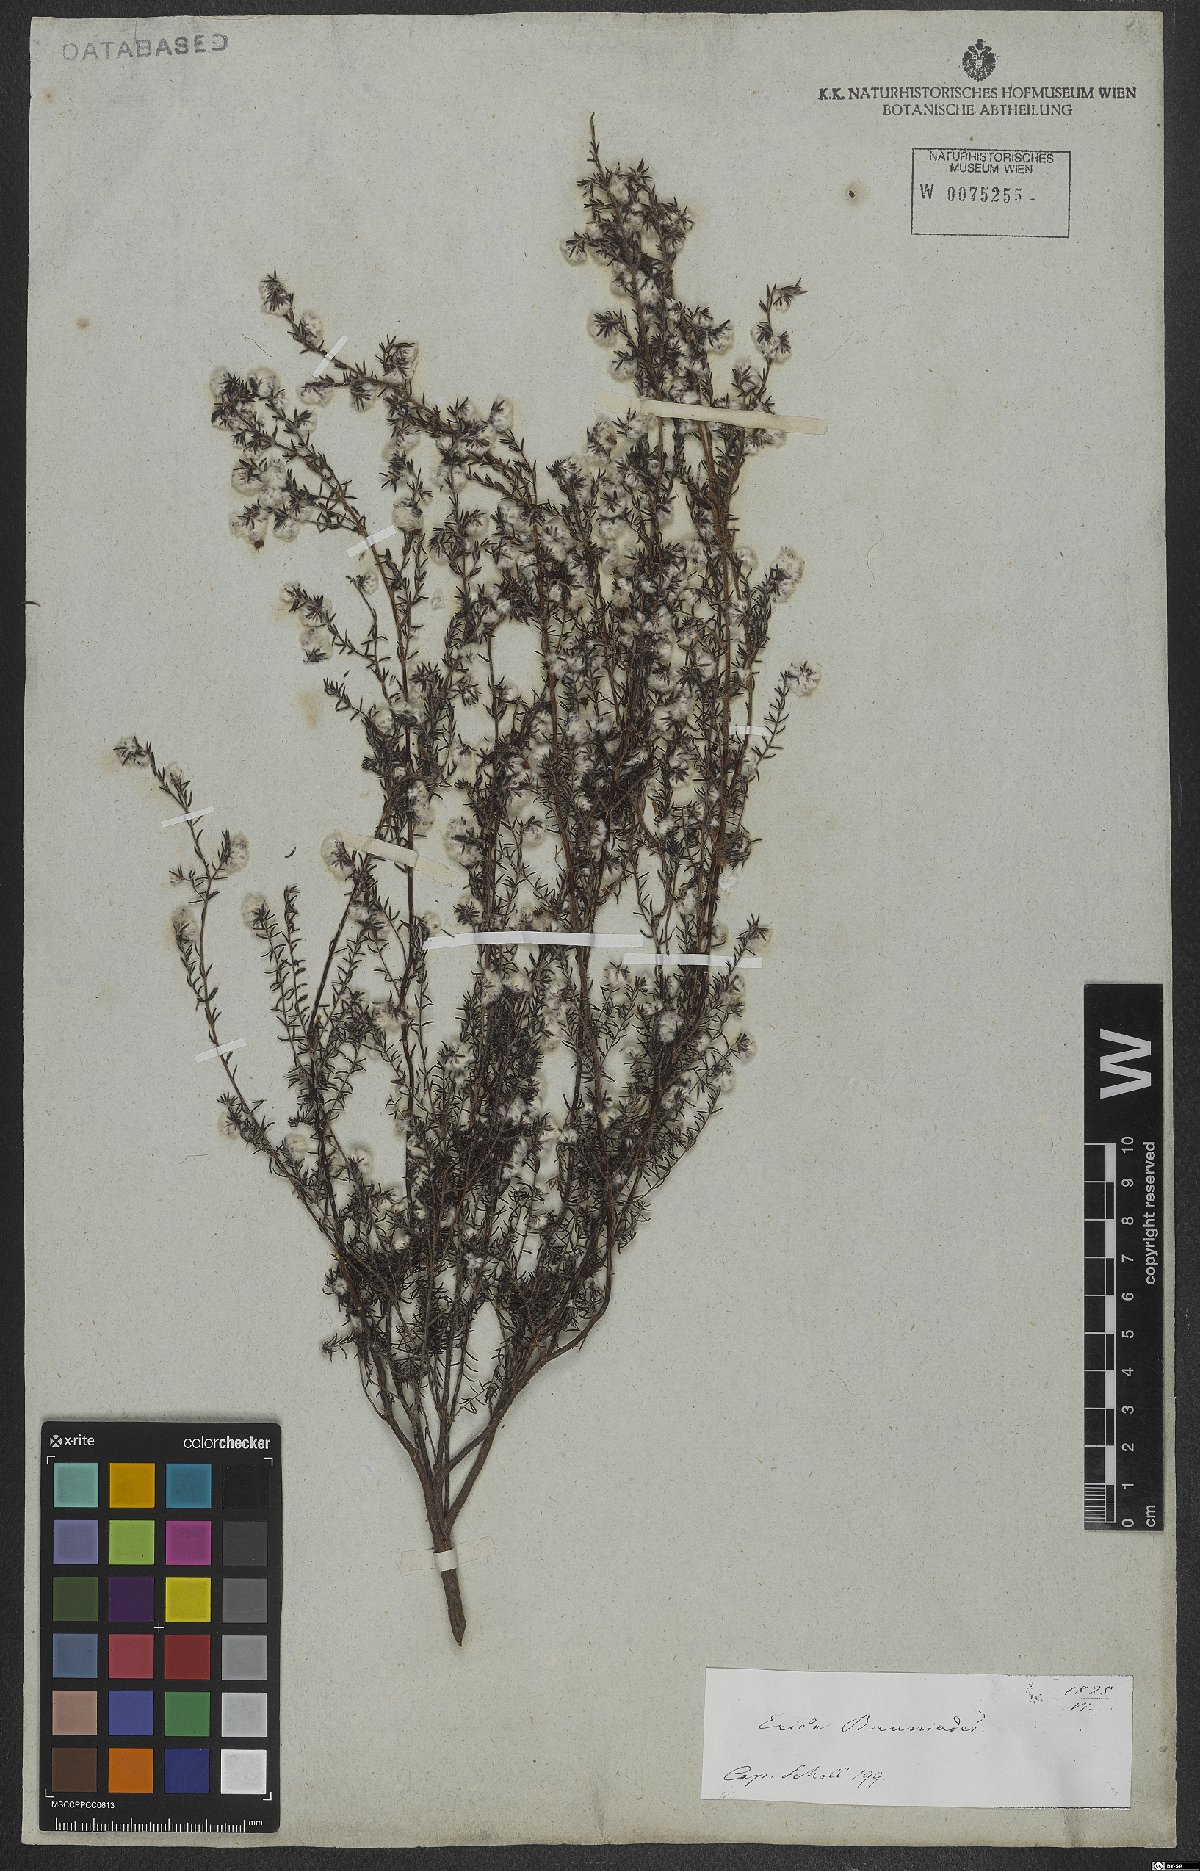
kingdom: Plantae
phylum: Tracheophyta
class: Magnoliopsida
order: Ericales
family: Ericaceae
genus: Erica
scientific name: Erica bruniades
